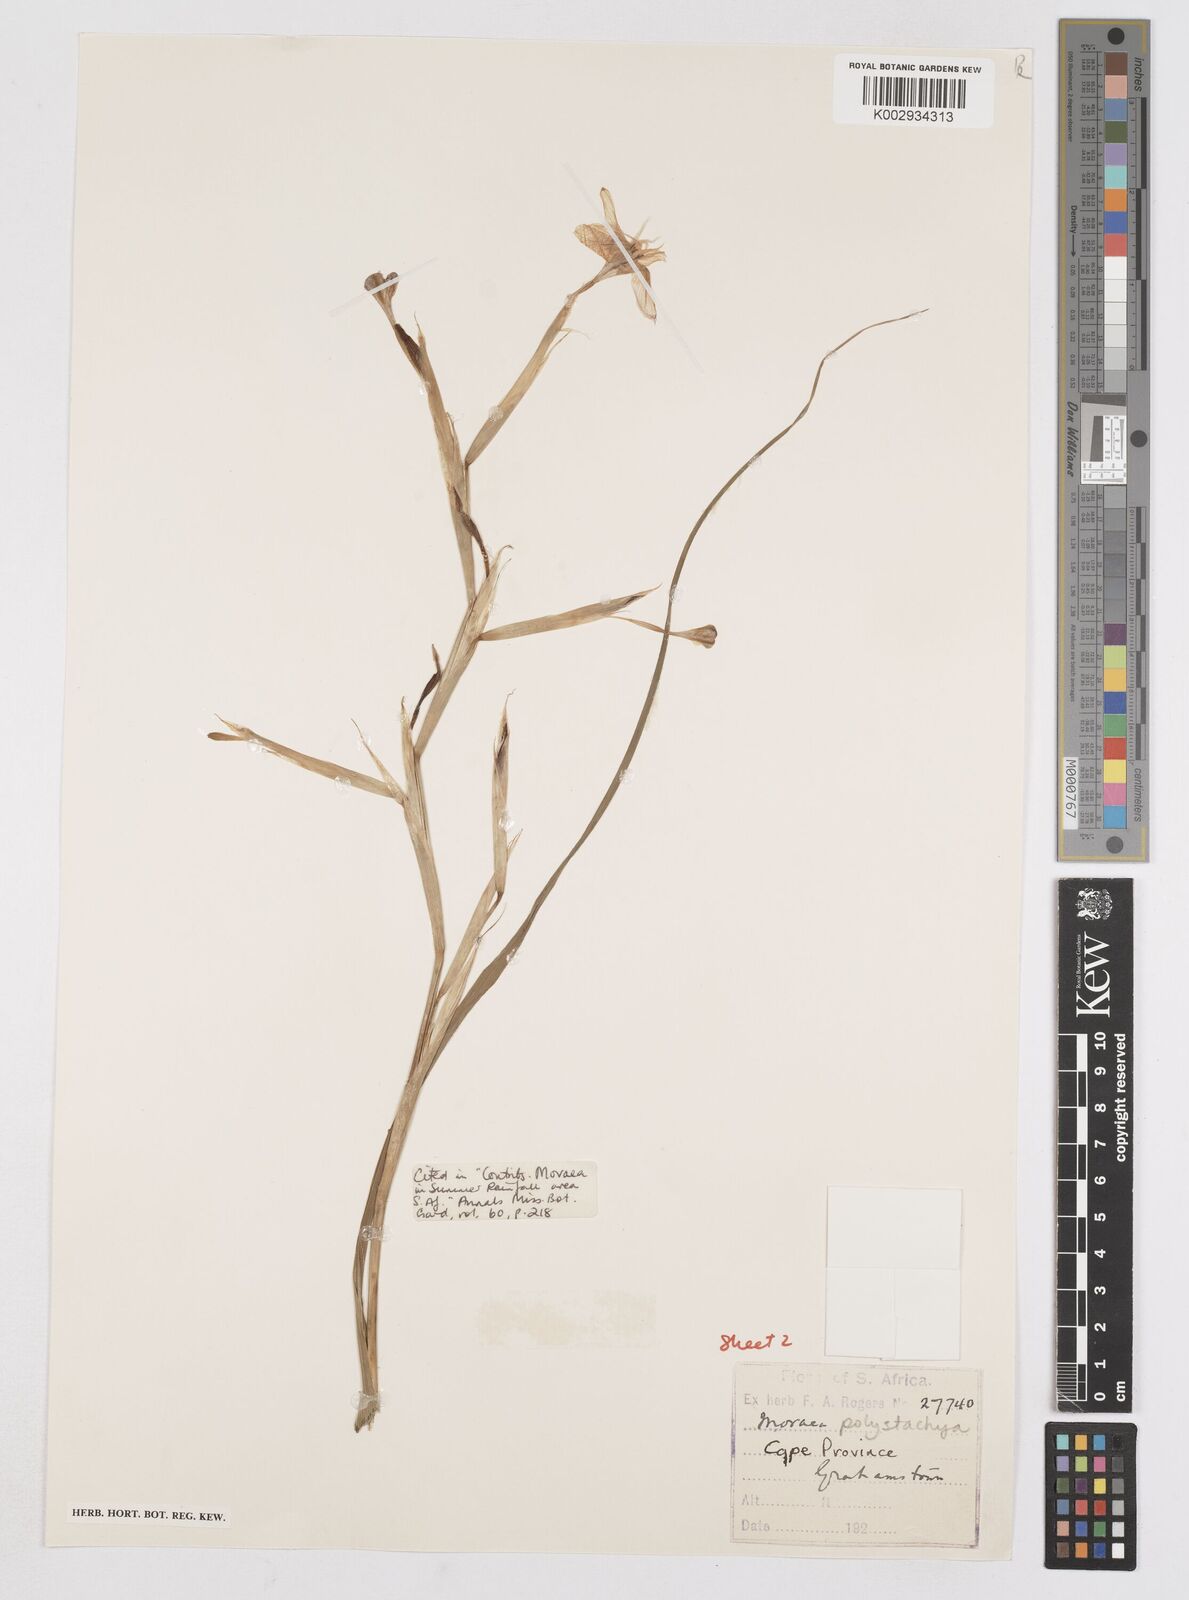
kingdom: Plantae
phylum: Tracheophyta
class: Liliopsida
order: Asparagales
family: Iridaceae
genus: Moraea
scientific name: Moraea polystachya
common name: Blue-tulip
